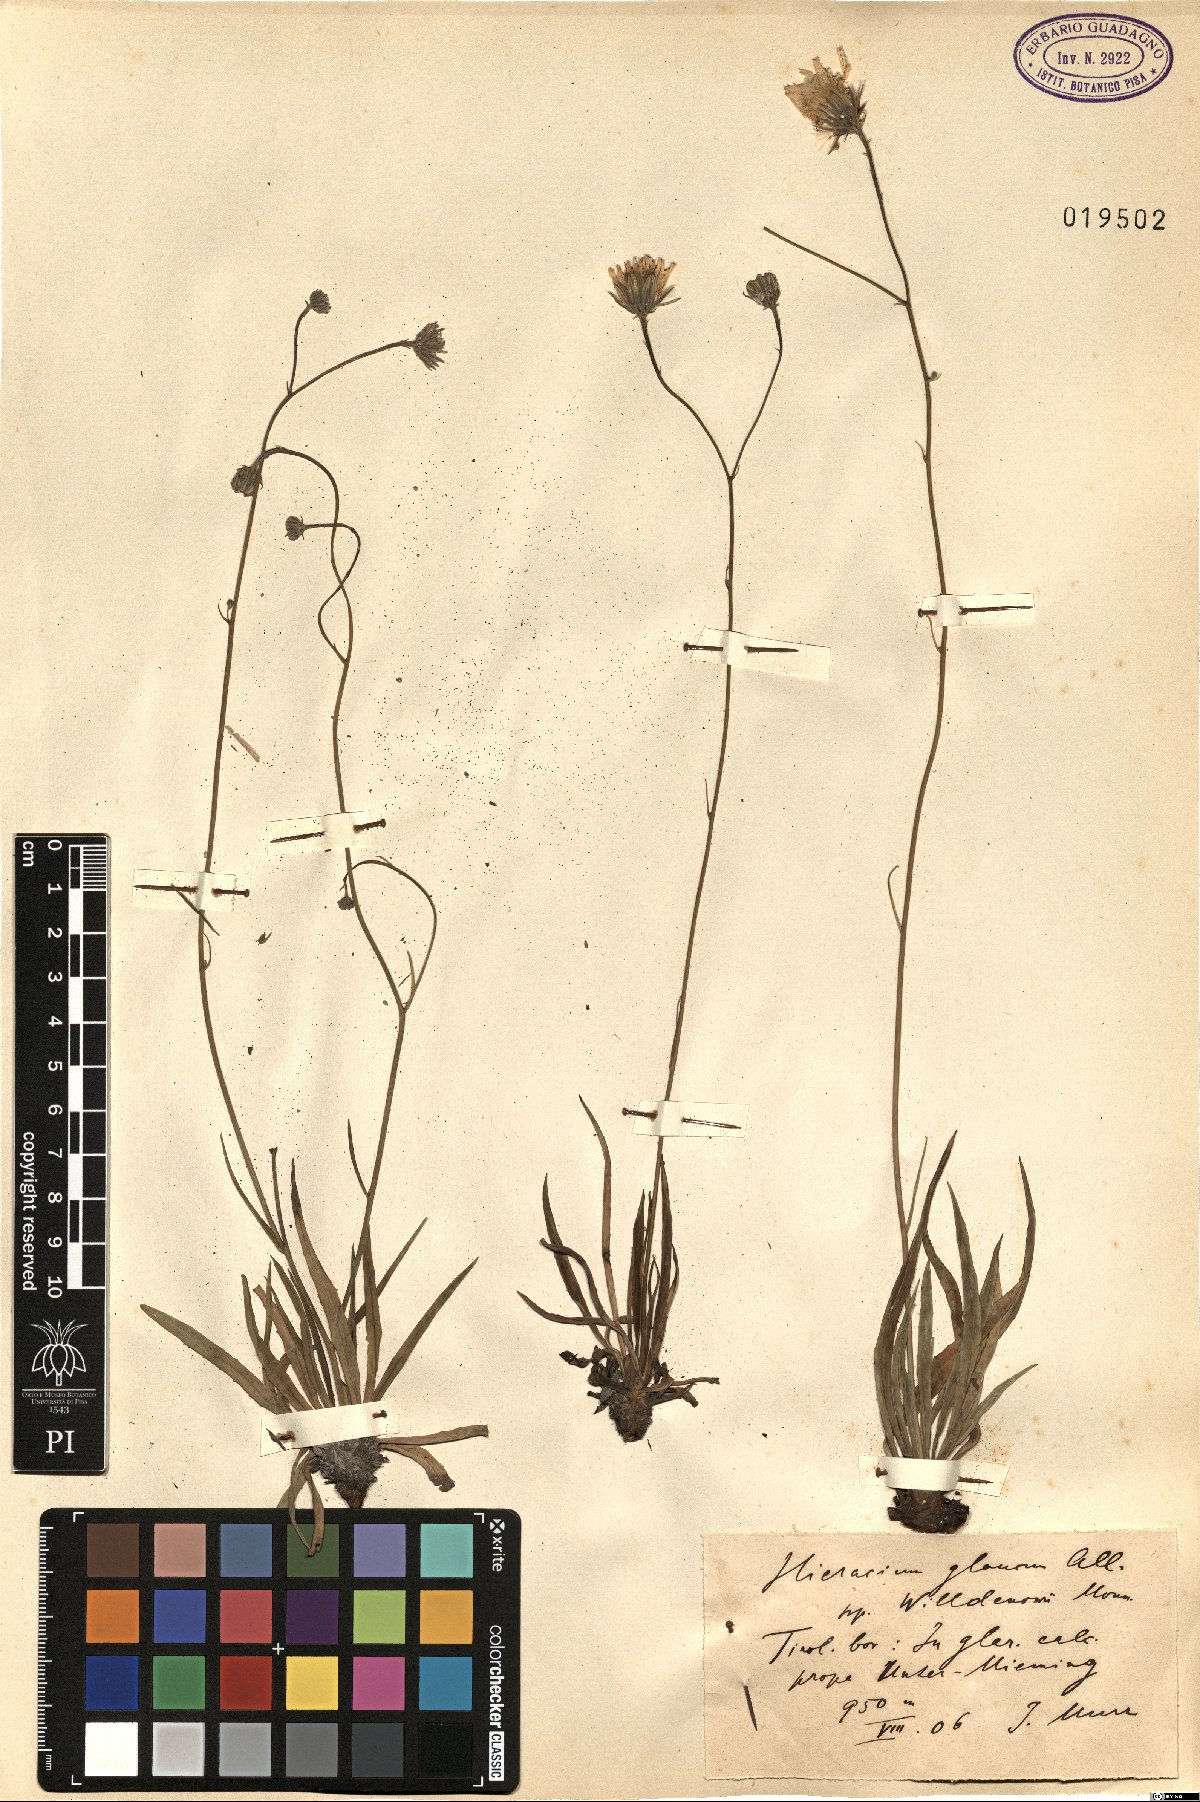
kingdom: Plantae
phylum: Tracheophyta
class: Magnoliopsida
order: Asterales
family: Asteraceae
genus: Hieracium
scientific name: Hieracium glaucum
